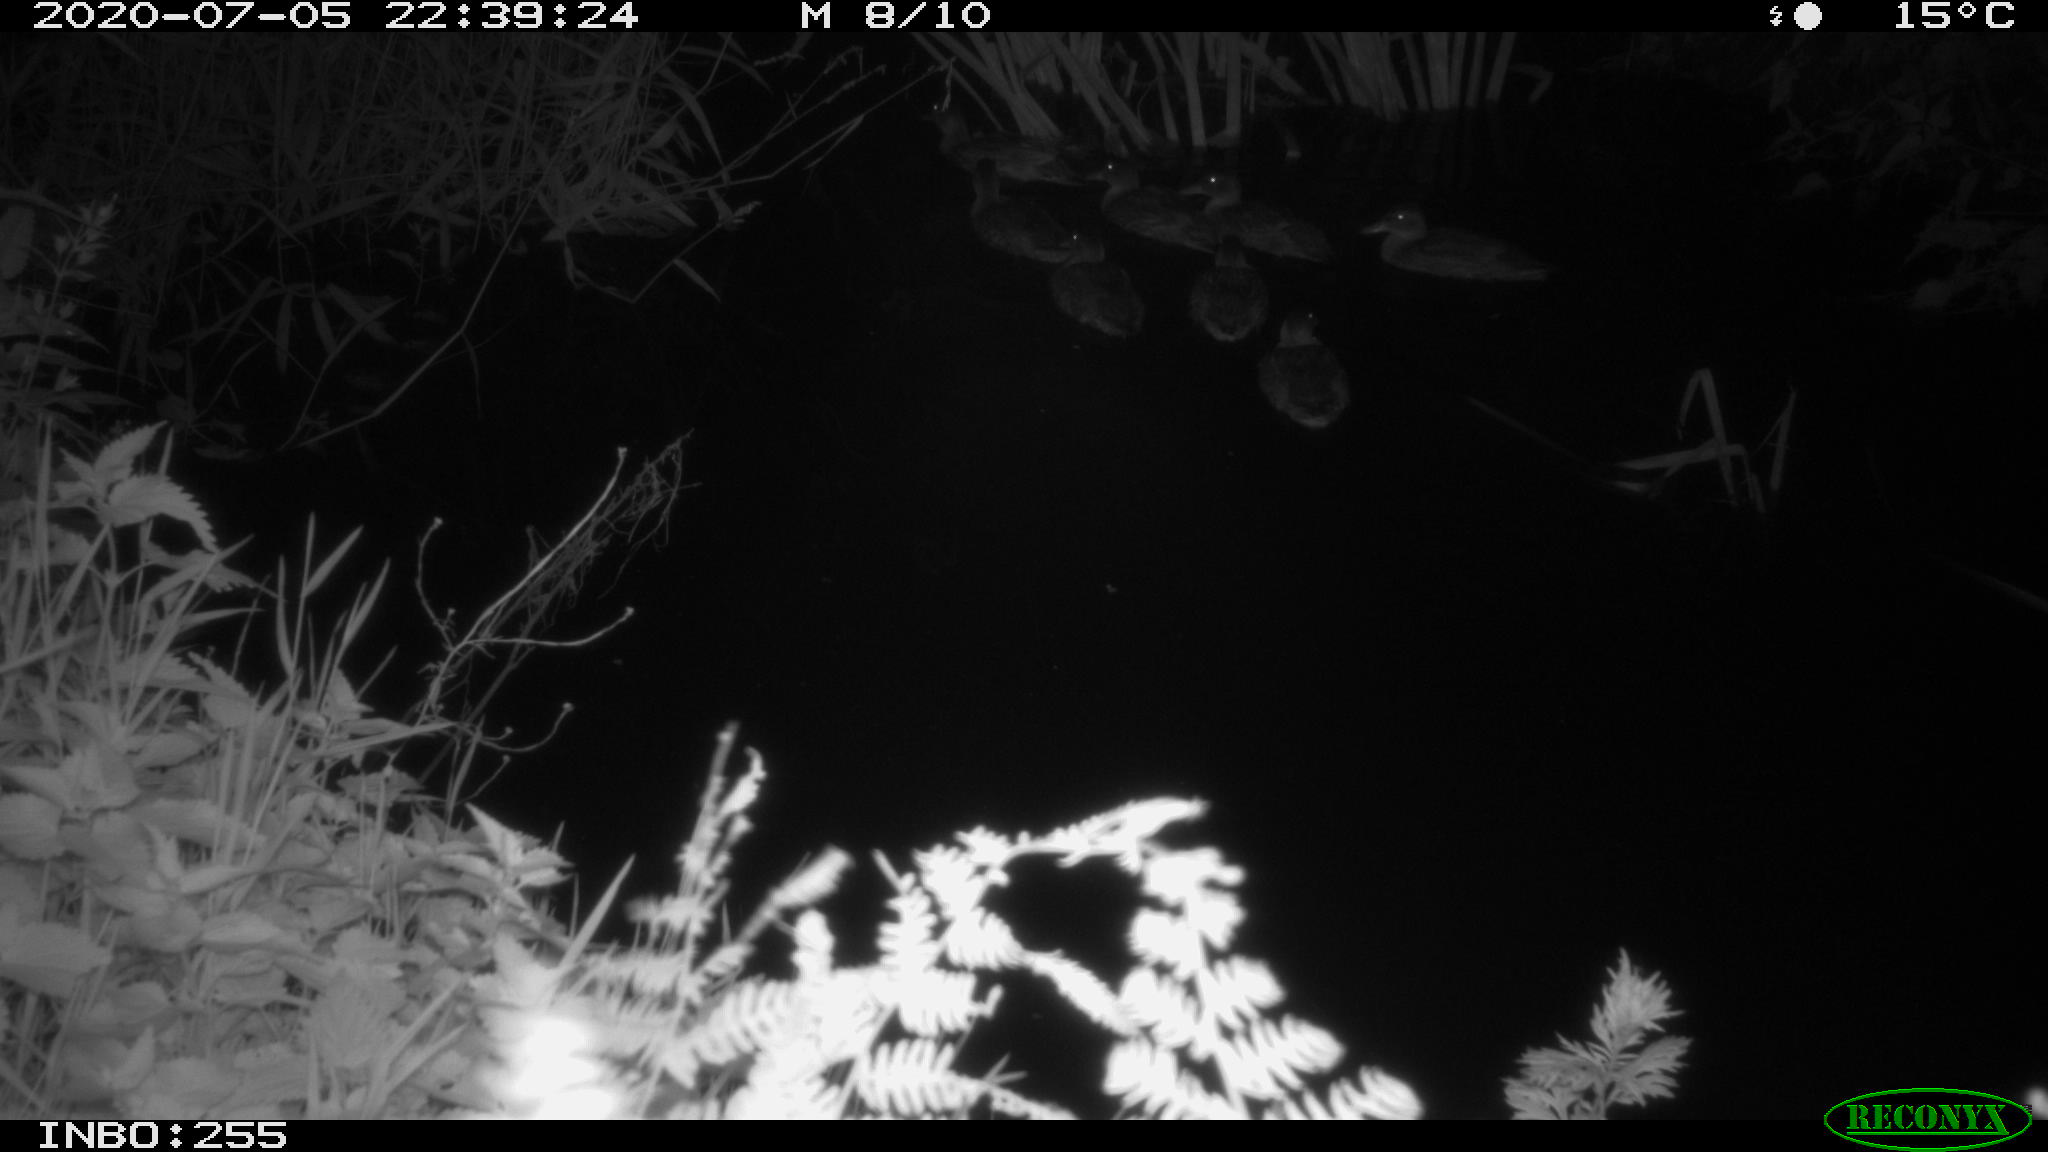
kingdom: Animalia
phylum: Chordata
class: Aves
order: Anseriformes
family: Anatidae
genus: Anas
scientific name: Anas platyrhynchos
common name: Mallard
